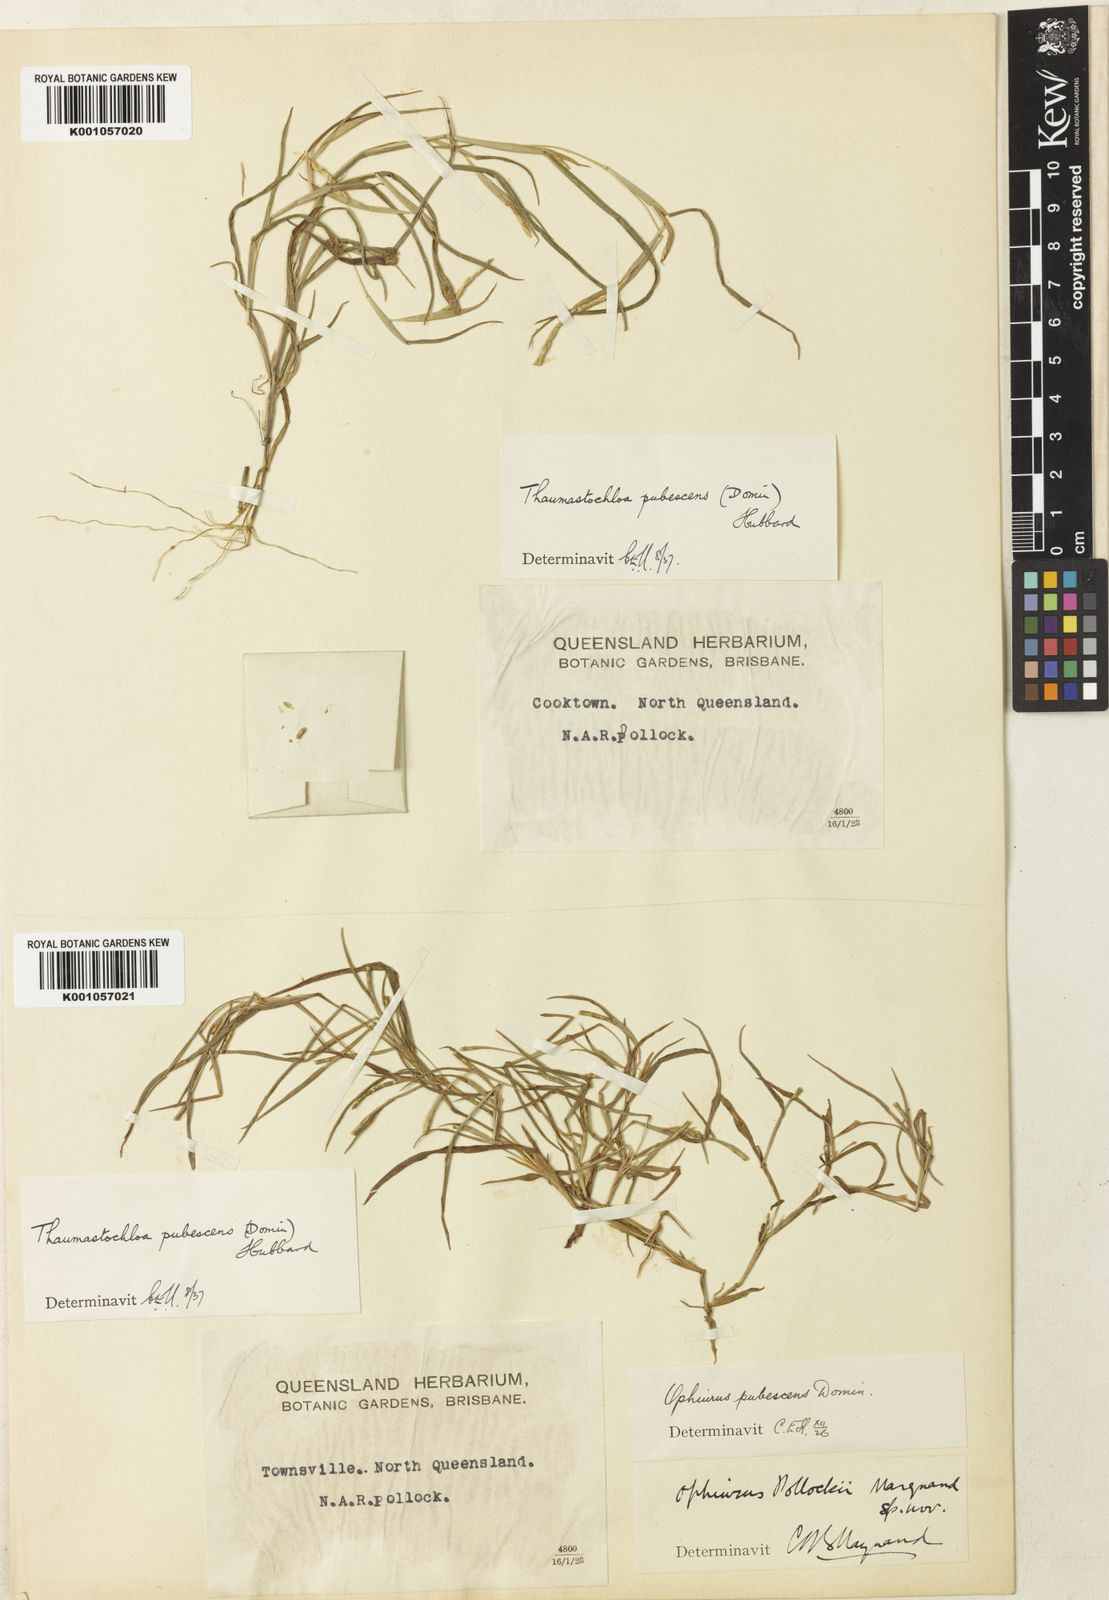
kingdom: Plantae
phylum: Tracheophyta
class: Liliopsida
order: Poales
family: Poaceae
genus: Thaumastochloa
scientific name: Thaumastochloa pubescens
